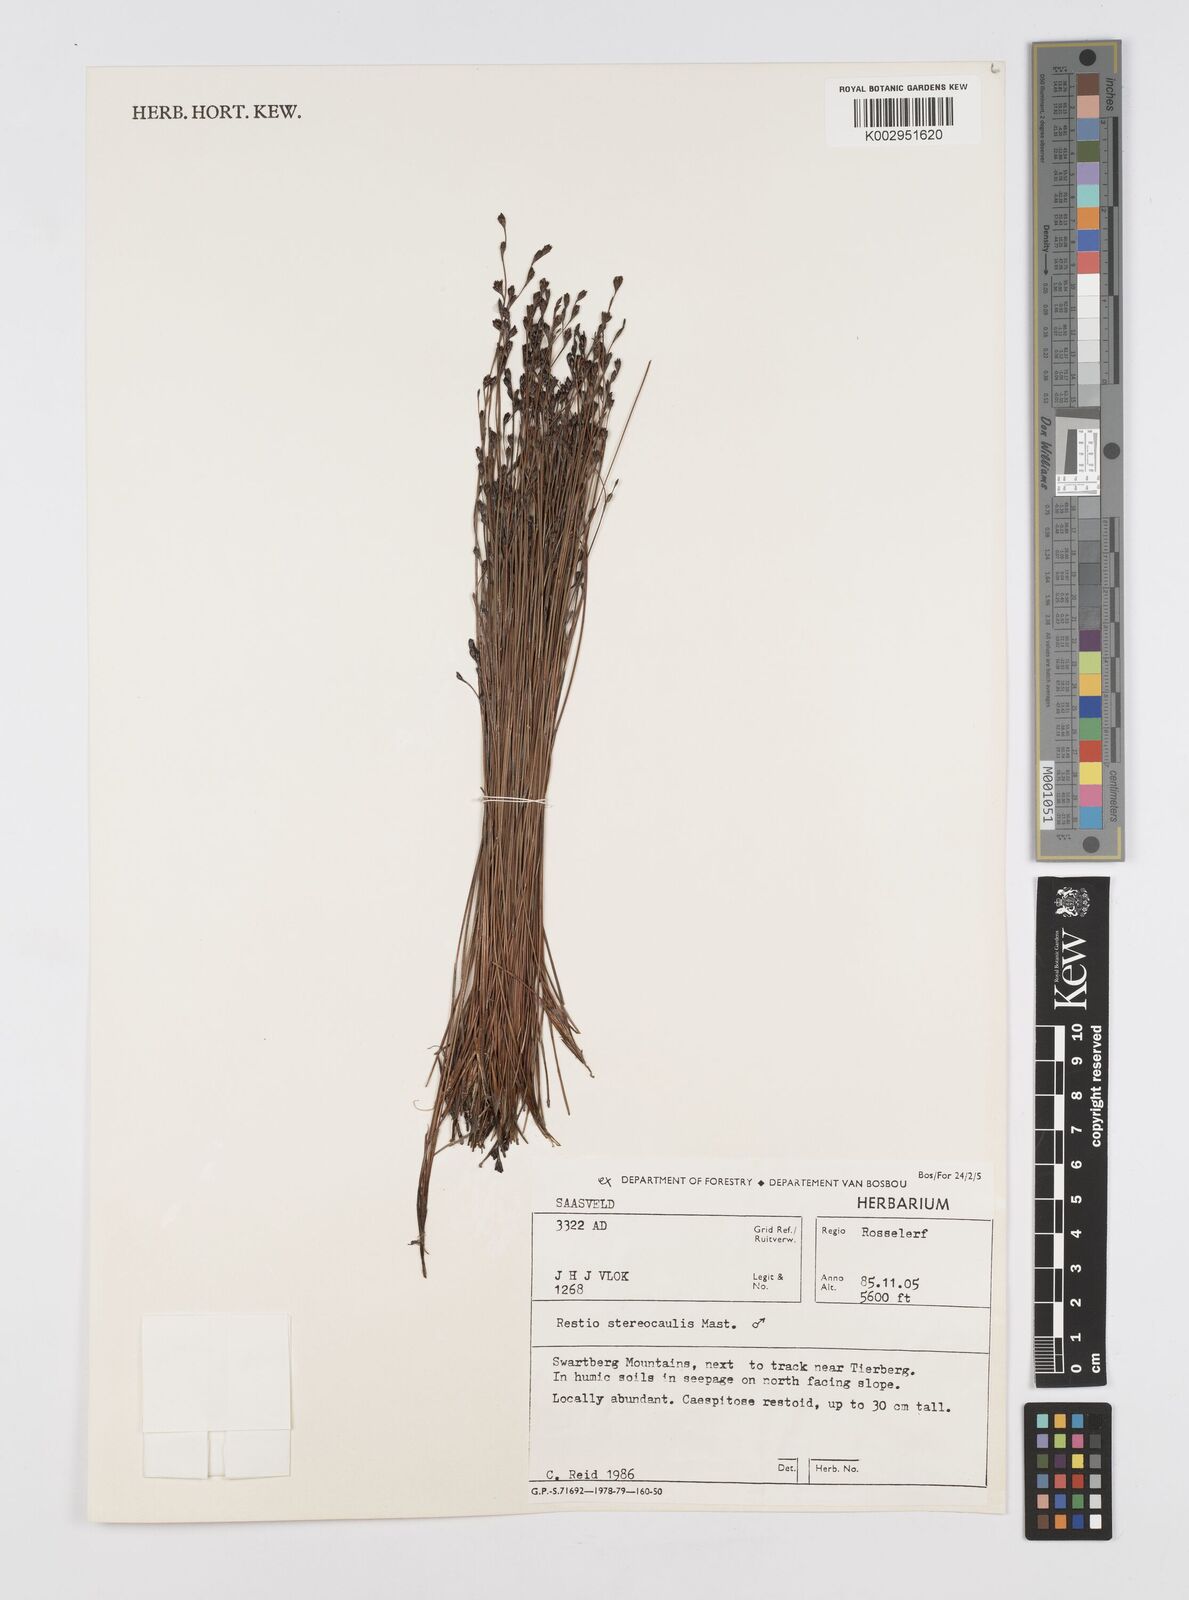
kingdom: Plantae
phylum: Tracheophyta
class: Liliopsida
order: Poales
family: Restionaceae
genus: Restio
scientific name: Restio stereocaulis
